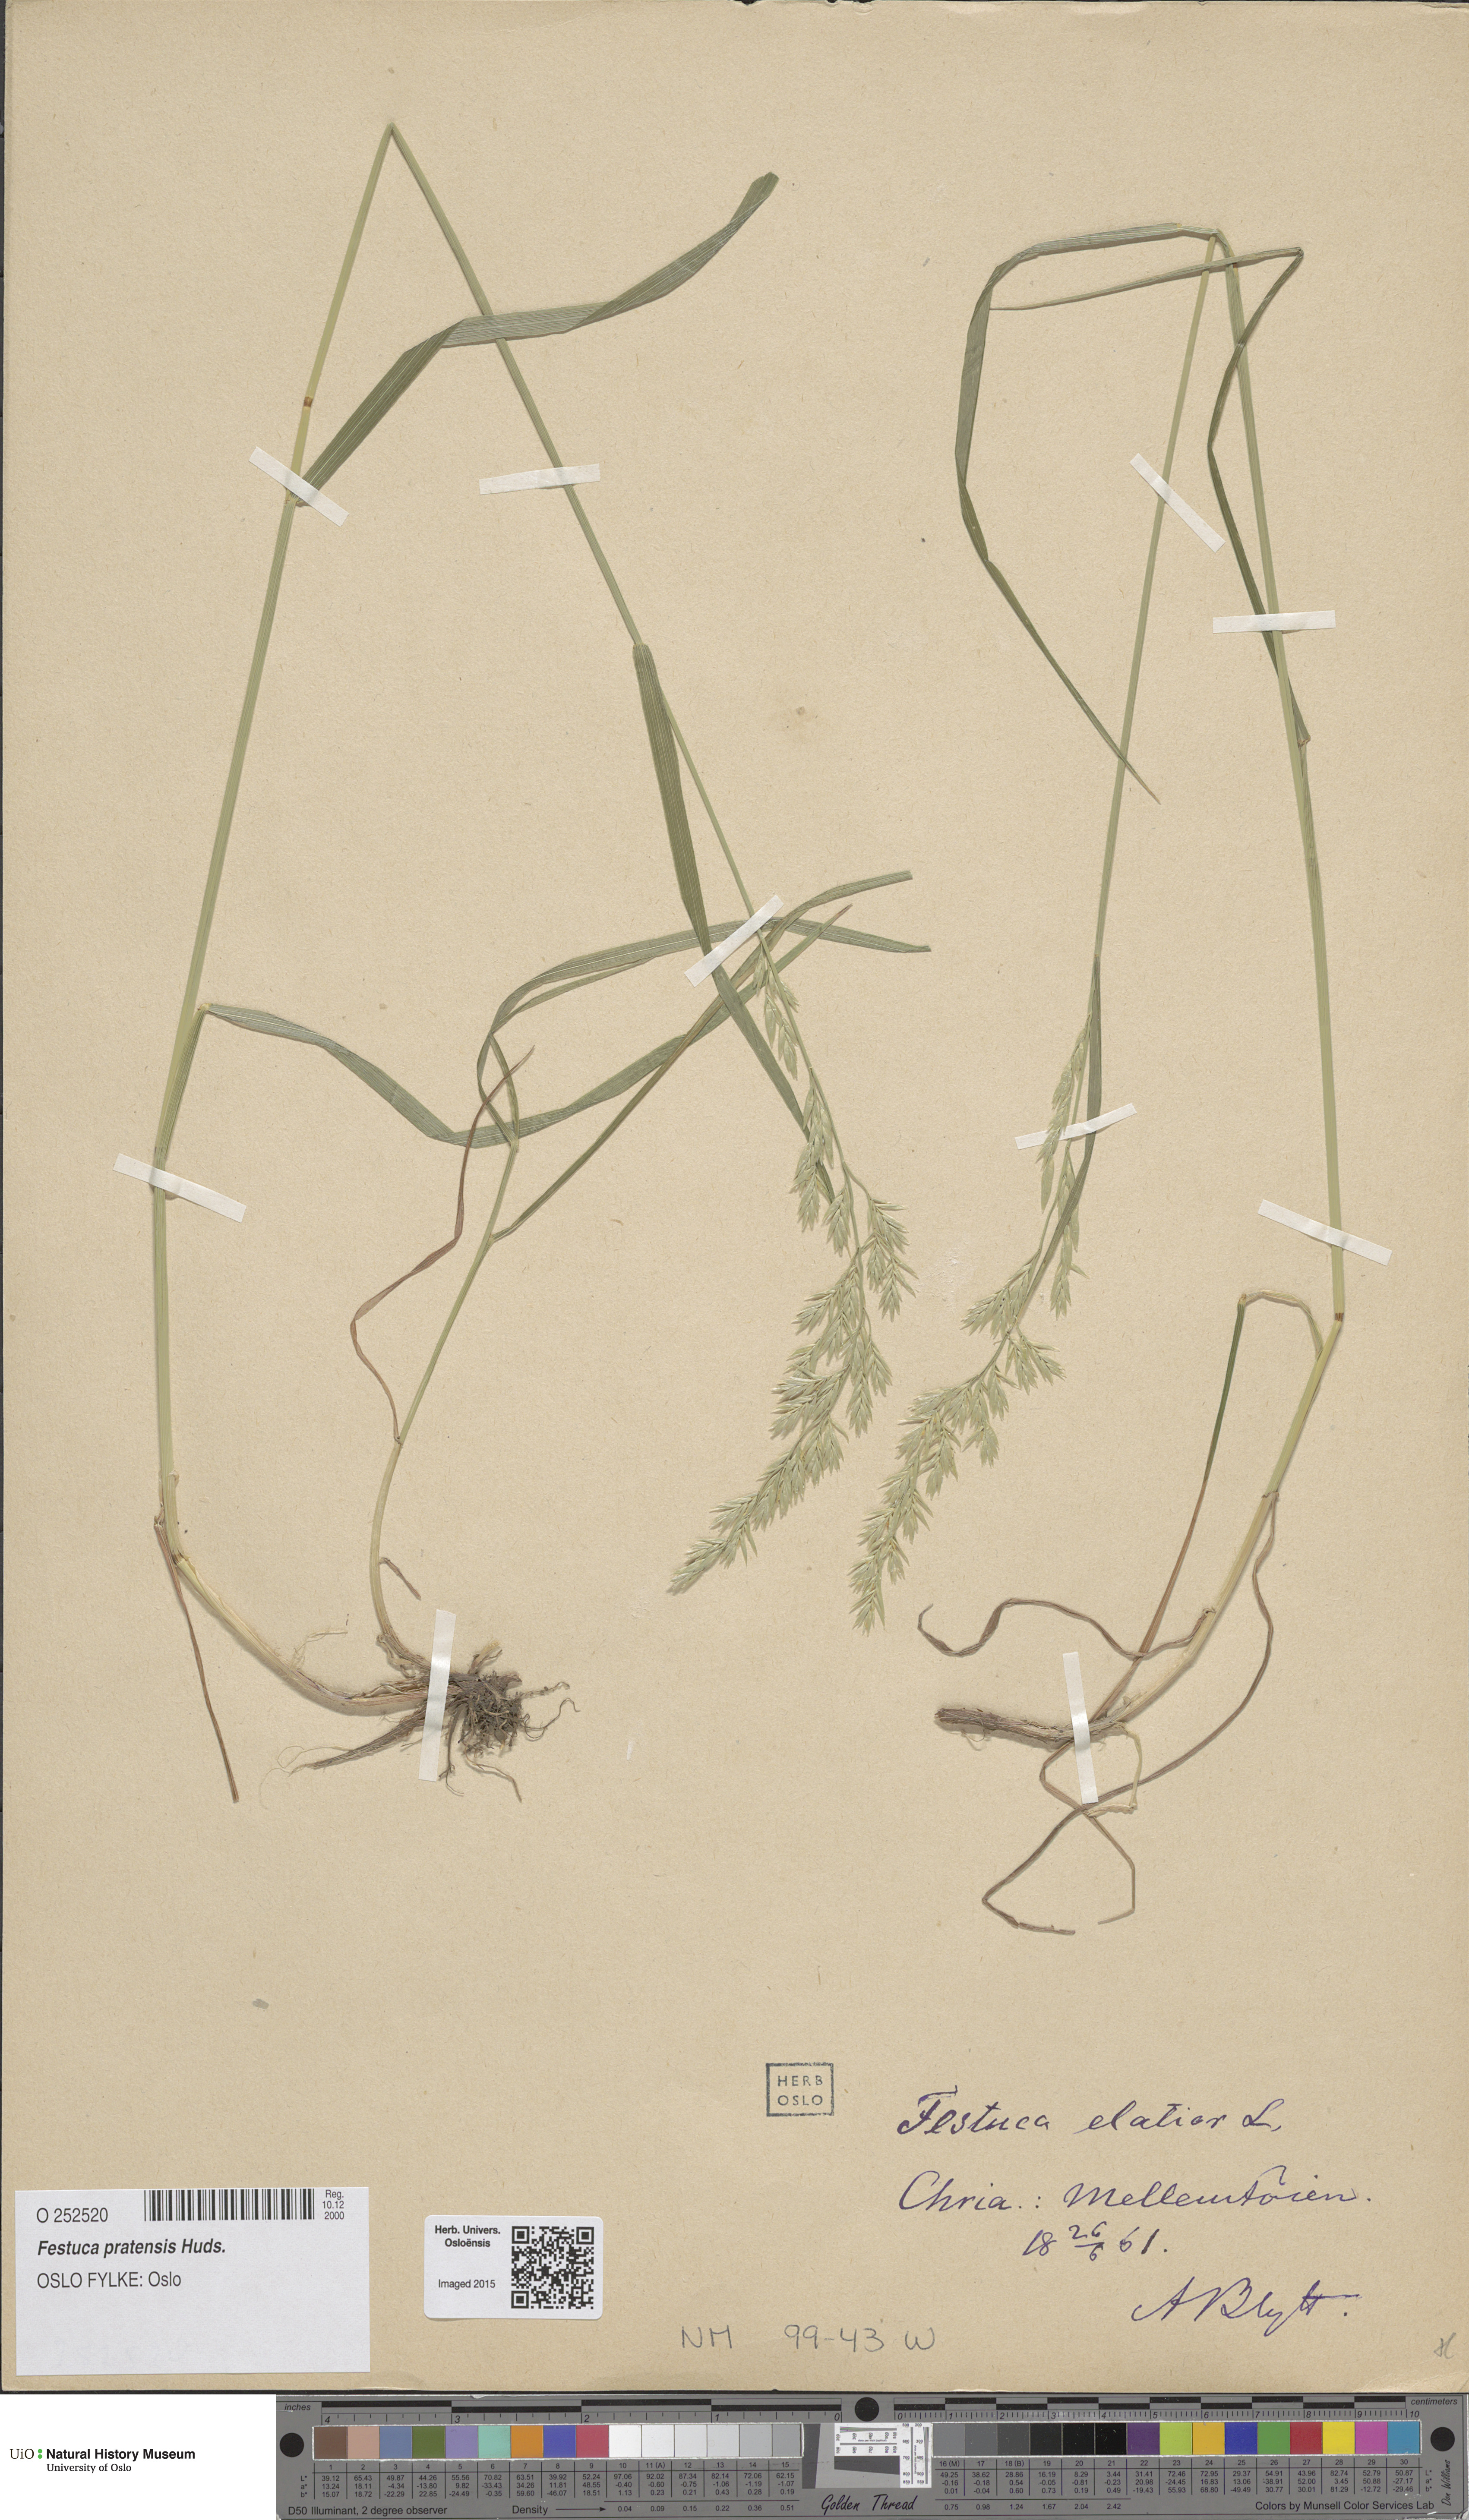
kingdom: Plantae
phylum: Tracheophyta
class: Liliopsida
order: Poales
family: Poaceae
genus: Lolium
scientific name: Lolium pratense
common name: Dover grass
